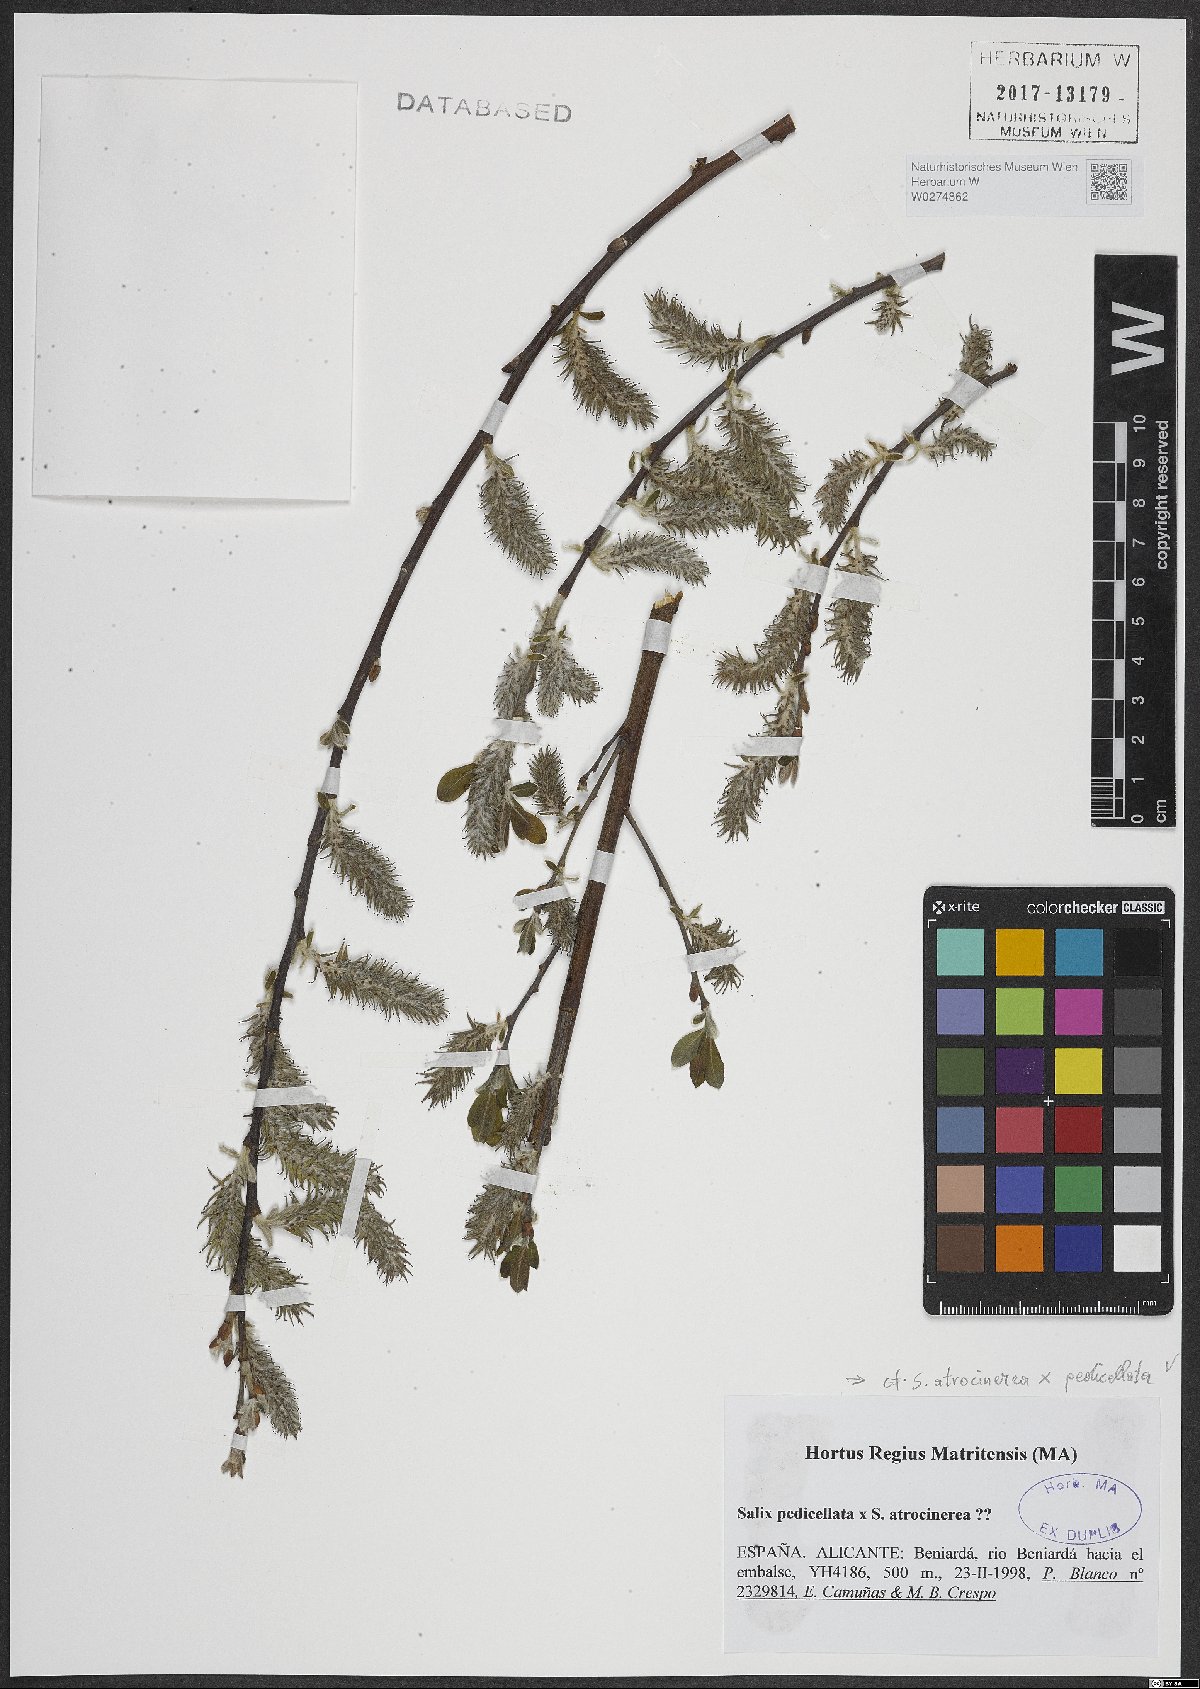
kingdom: Plantae
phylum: Tracheophyta
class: Magnoliopsida
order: Malpighiales
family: Salicaceae
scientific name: Salicaceae
